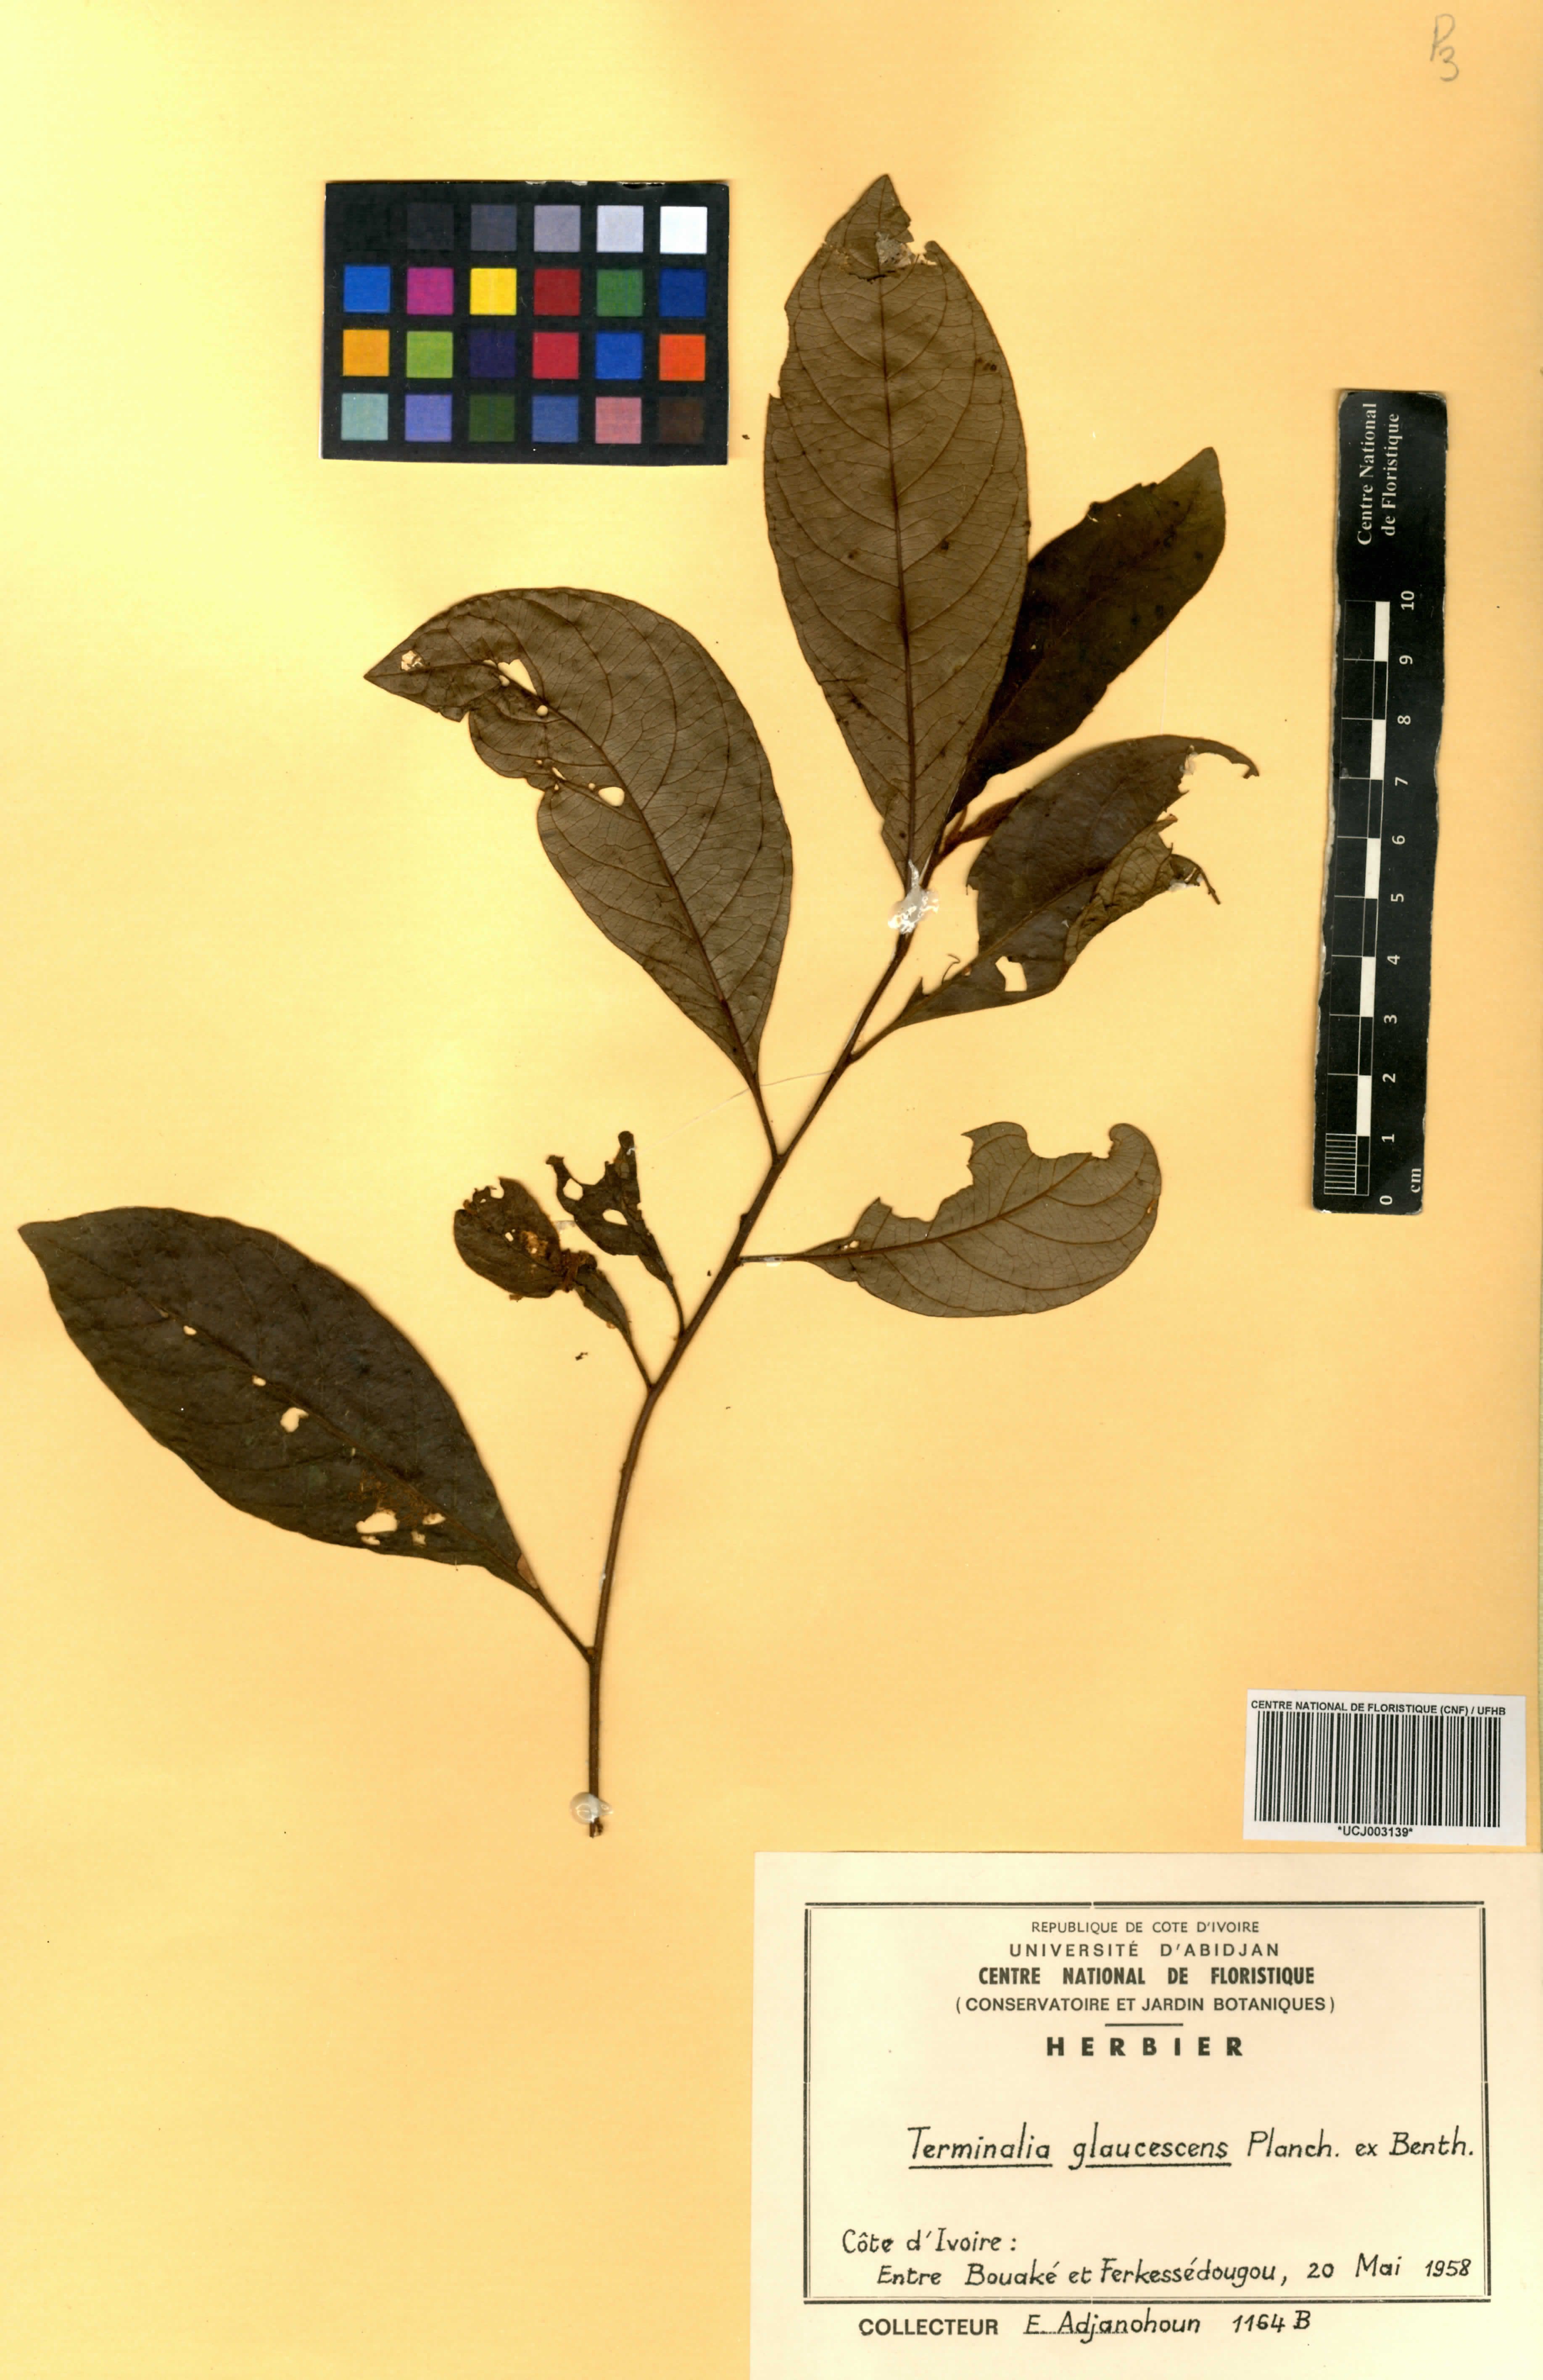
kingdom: Plantae
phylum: Tracheophyta
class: Magnoliopsida
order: Myrtales
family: Combretaceae
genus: Terminalia
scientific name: Terminalia schimperiana
